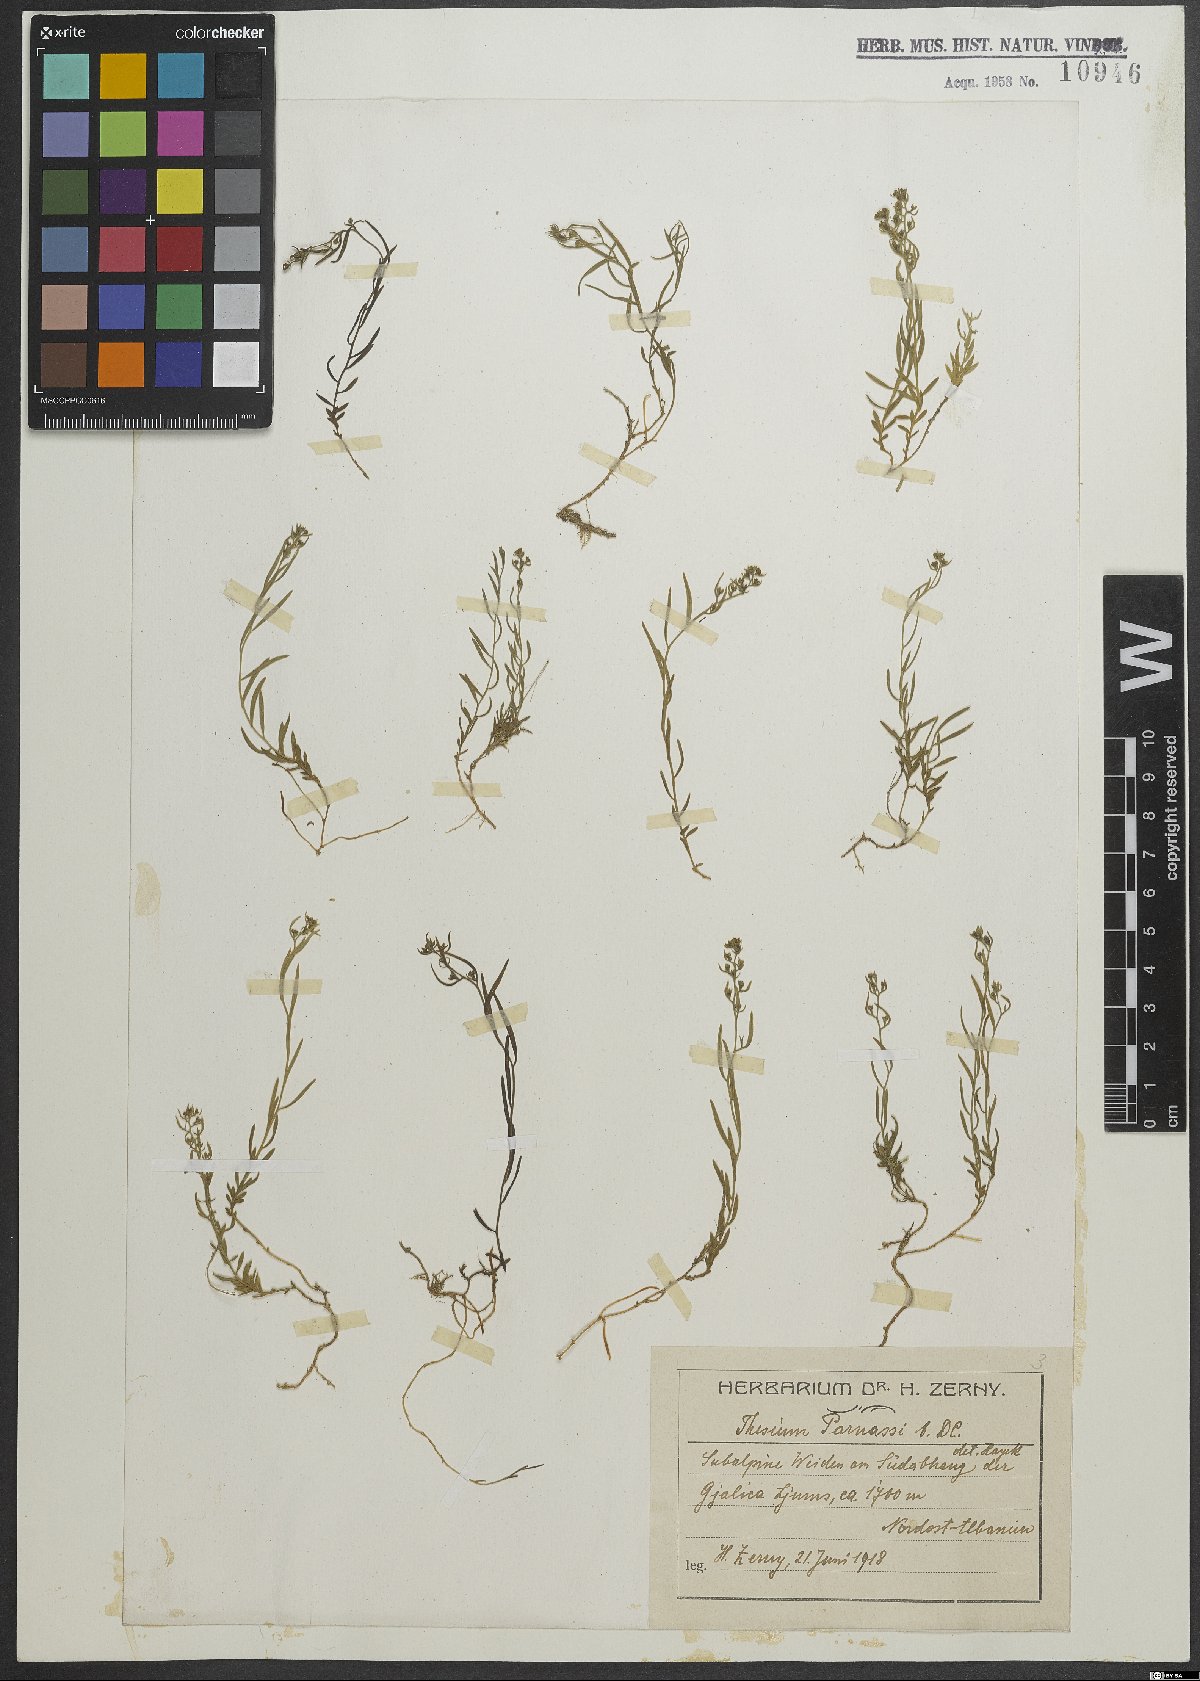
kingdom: Plantae
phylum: Tracheophyta
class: Magnoliopsida
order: Santalales
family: Thesiaceae
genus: Thesium
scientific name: Thesium parnassi
